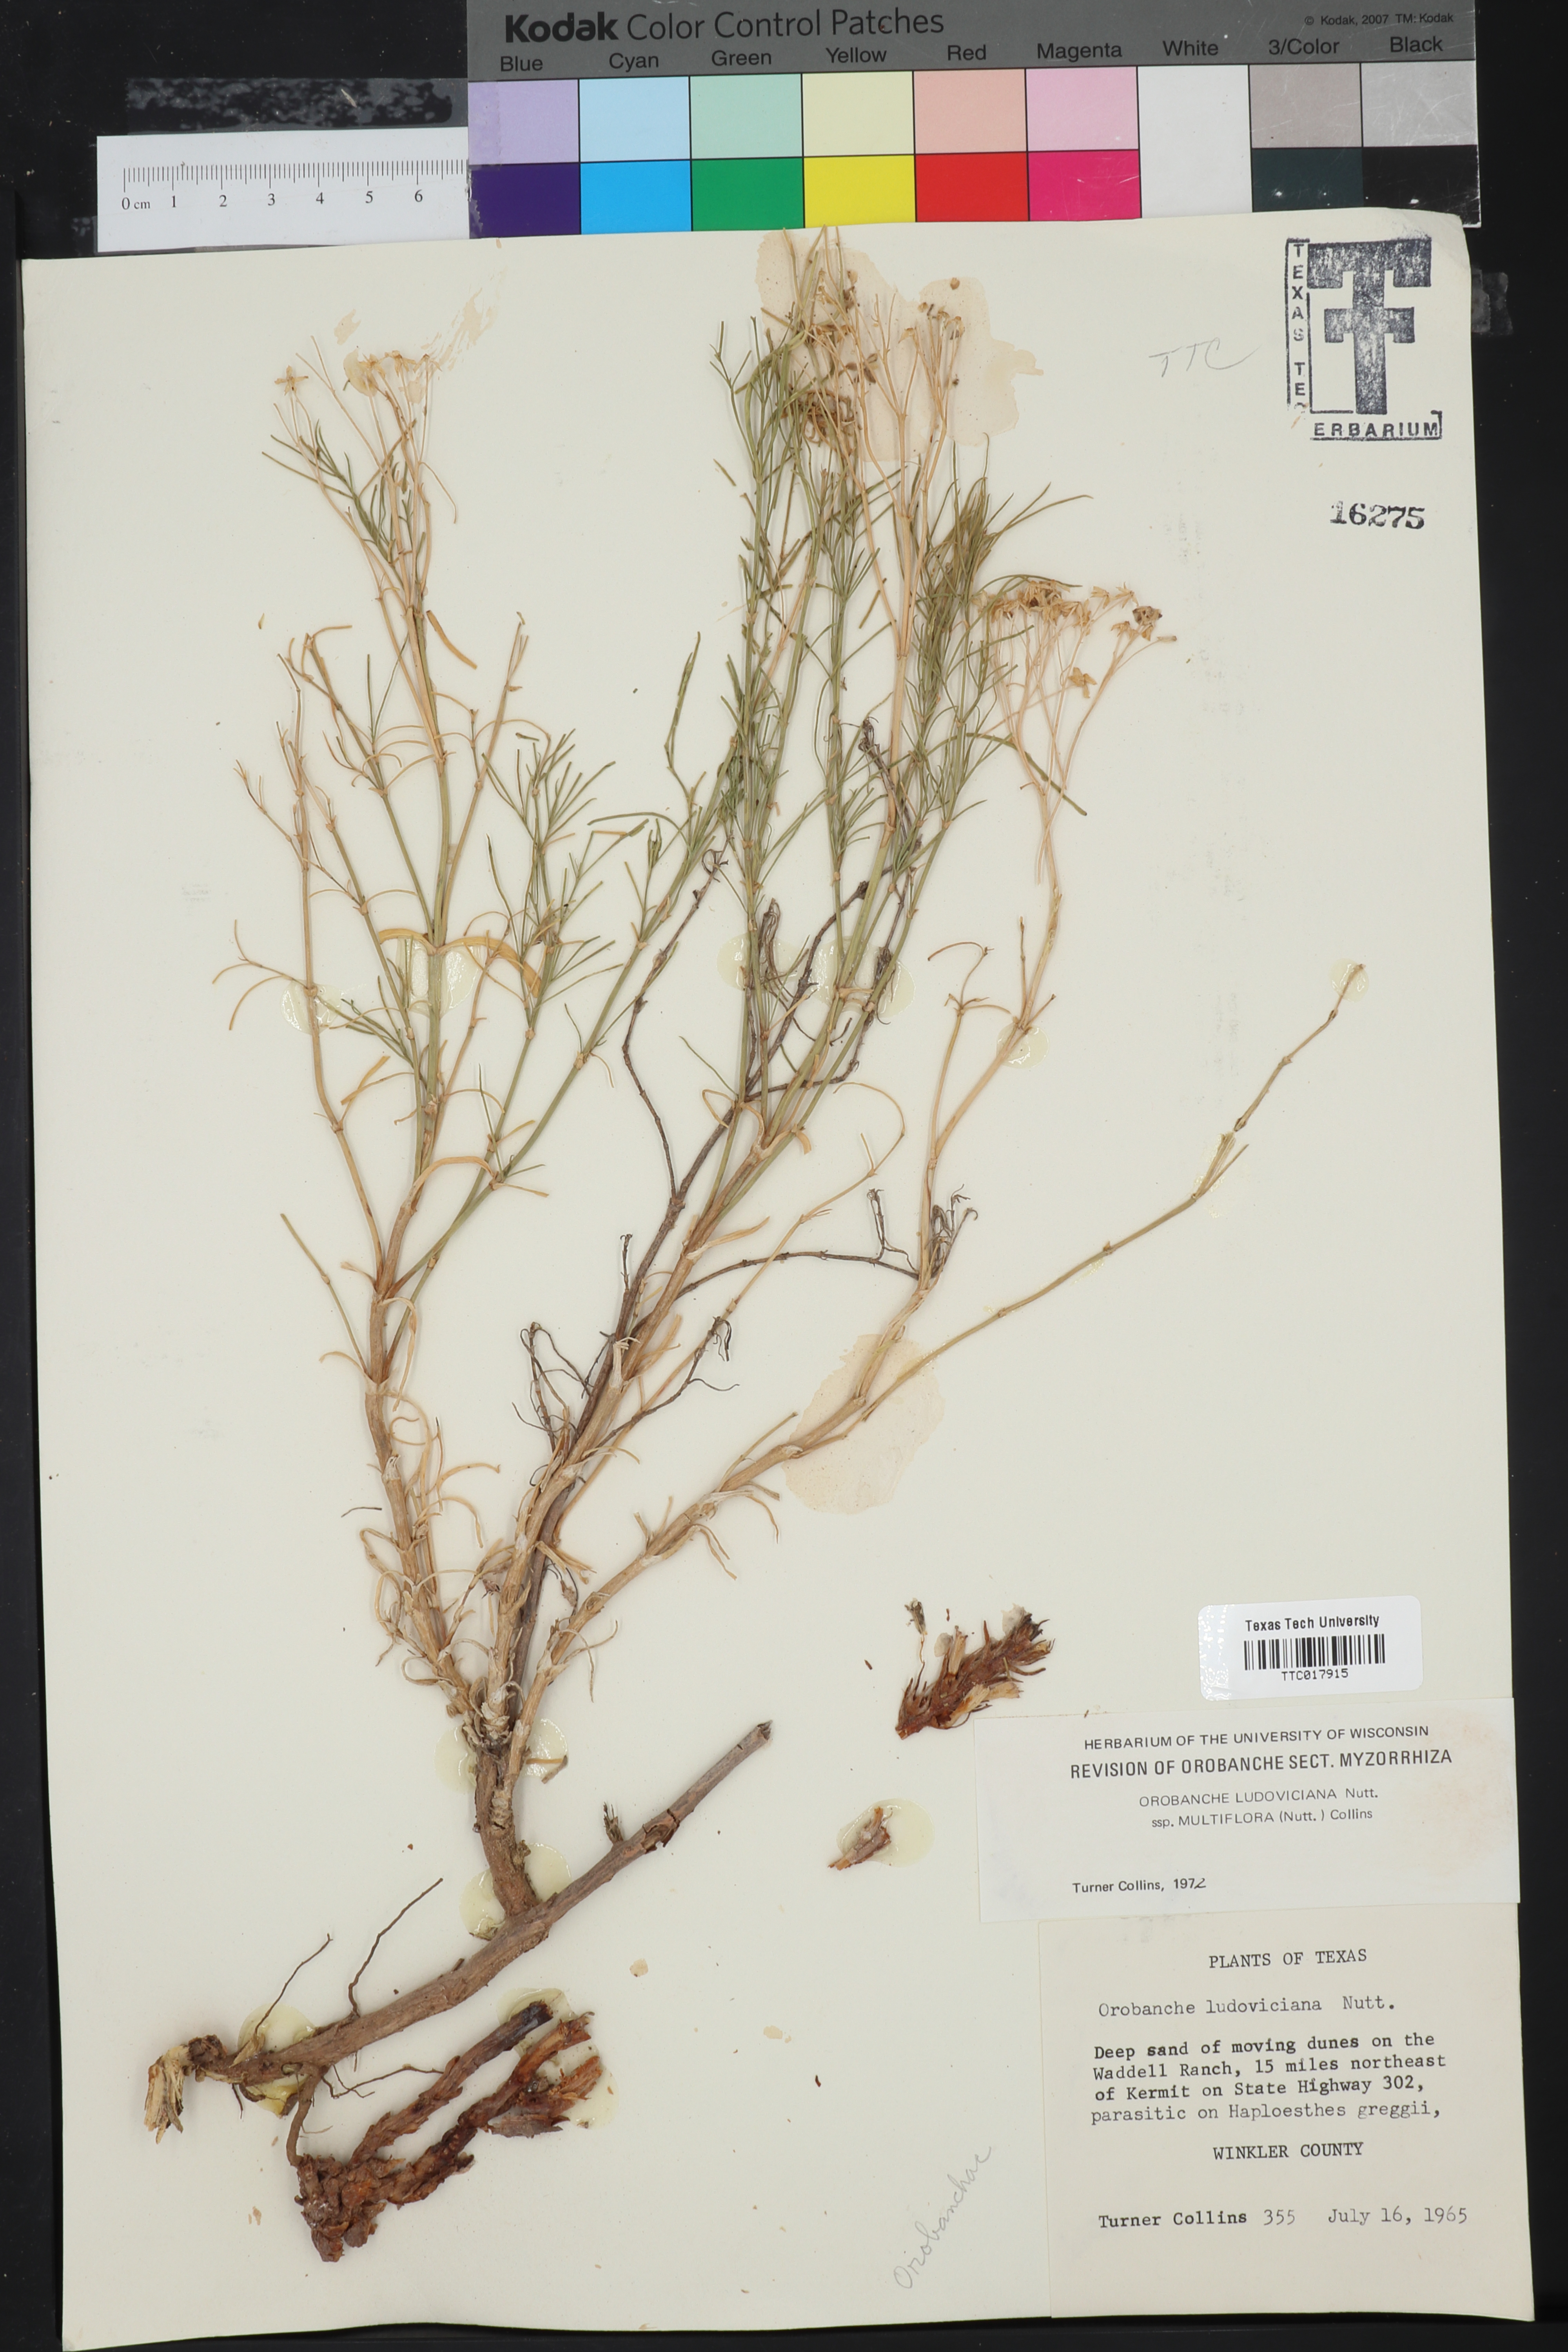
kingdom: Plantae
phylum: Tracheophyta
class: Magnoliopsida
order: Lamiales
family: Orobanchaceae
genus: Aphyllon
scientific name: Aphyllon multiflorum
